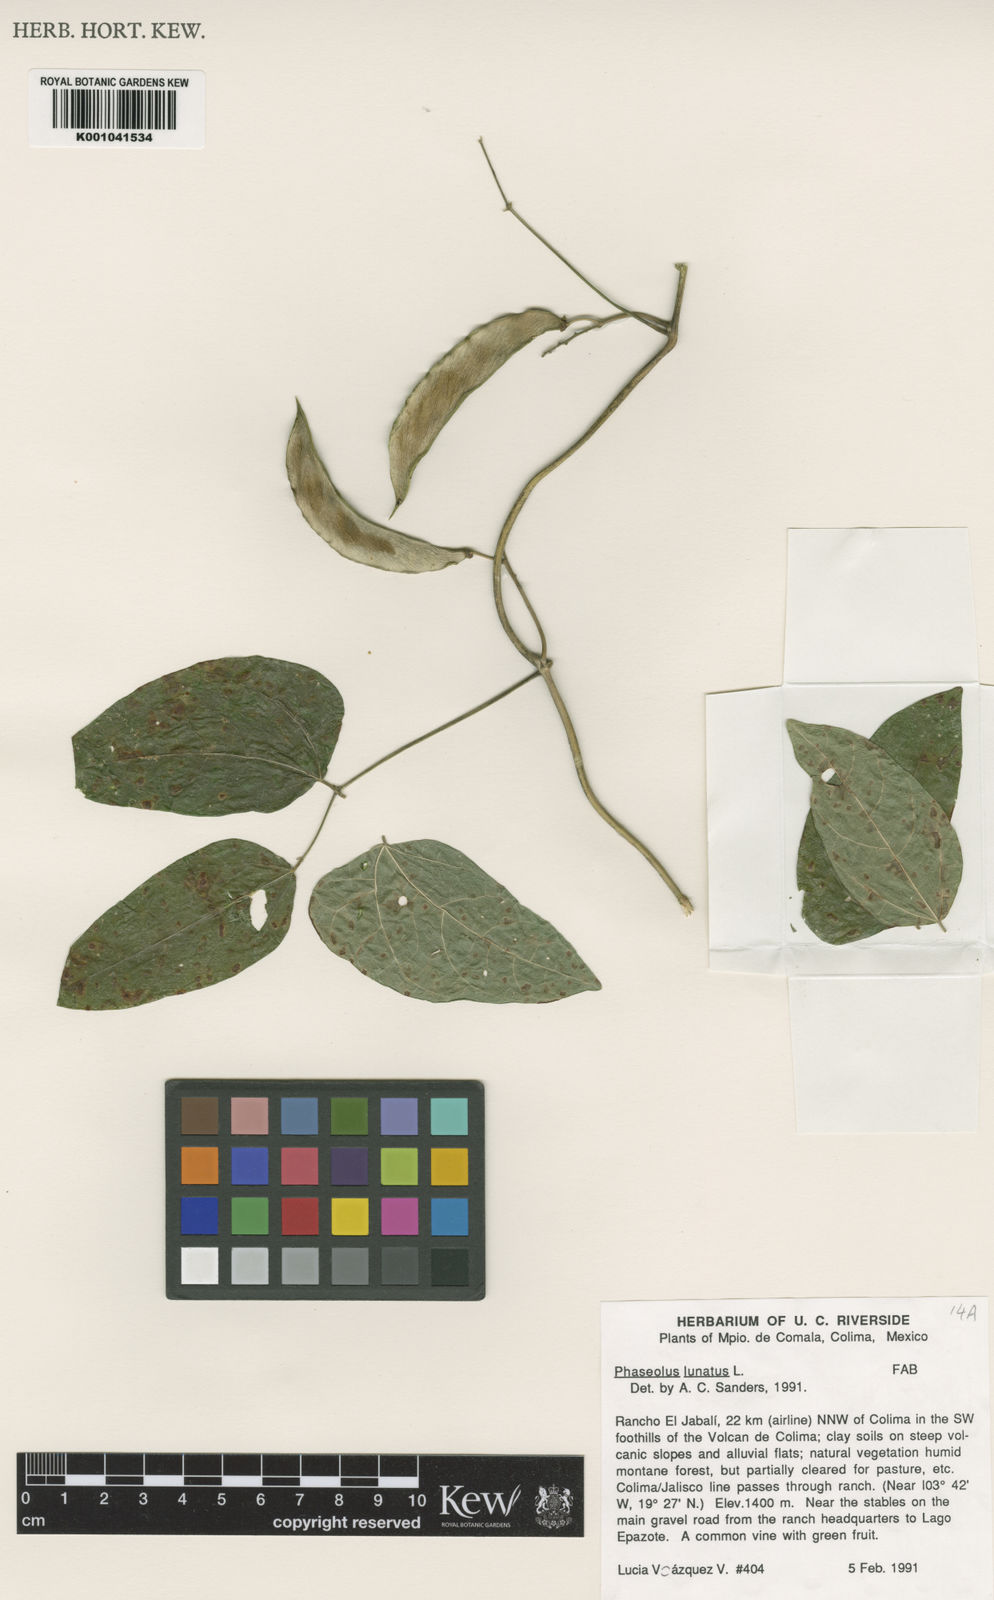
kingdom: Plantae
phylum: Tracheophyta
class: Magnoliopsida
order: Fabales
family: Fabaceae
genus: Phaseolus
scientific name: Phaseolus lunatus
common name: Sieva bean
